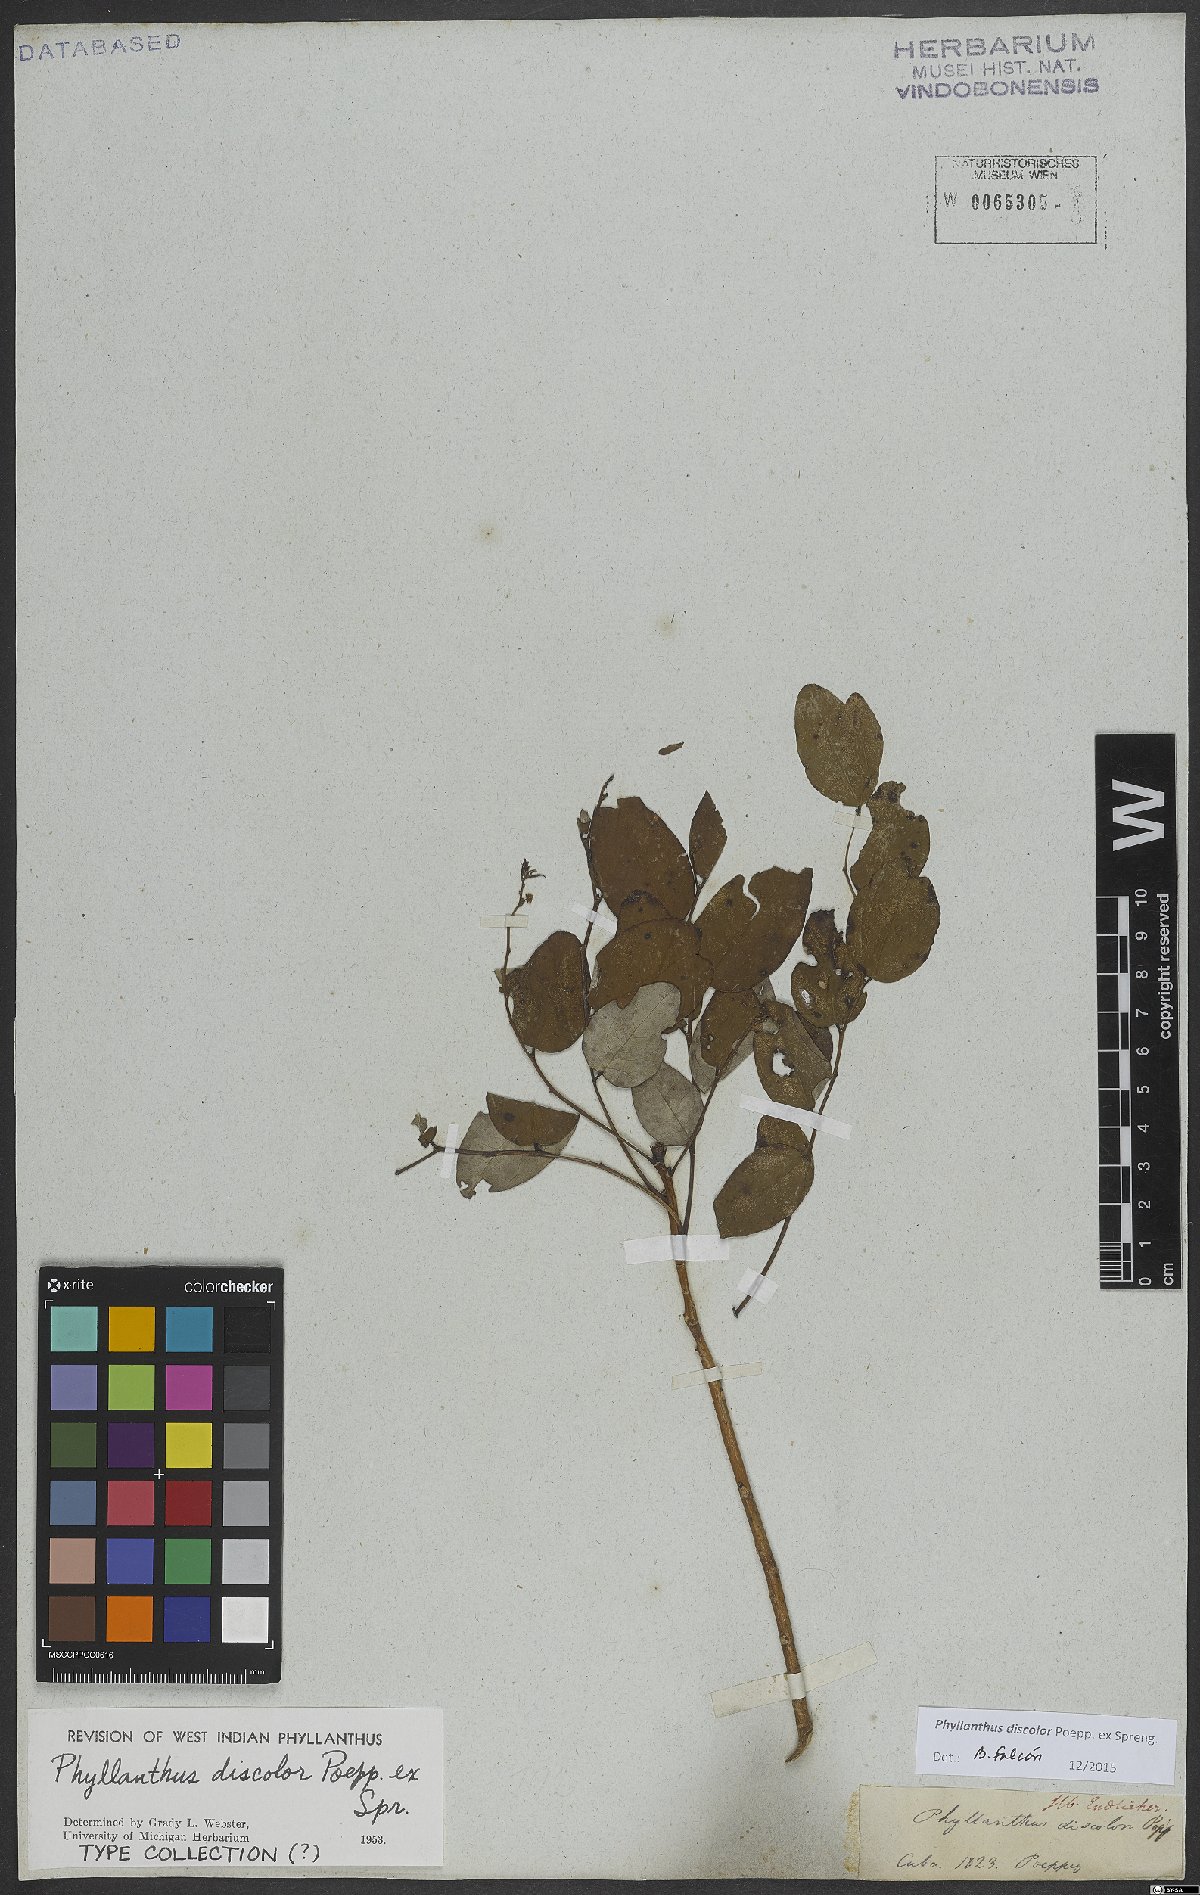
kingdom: Plantae
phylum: Tracheophyta
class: Magnoliopsida
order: Malpighiales
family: Phyllanthaceae
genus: Phyllanthus
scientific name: Phyllanthus discolor
